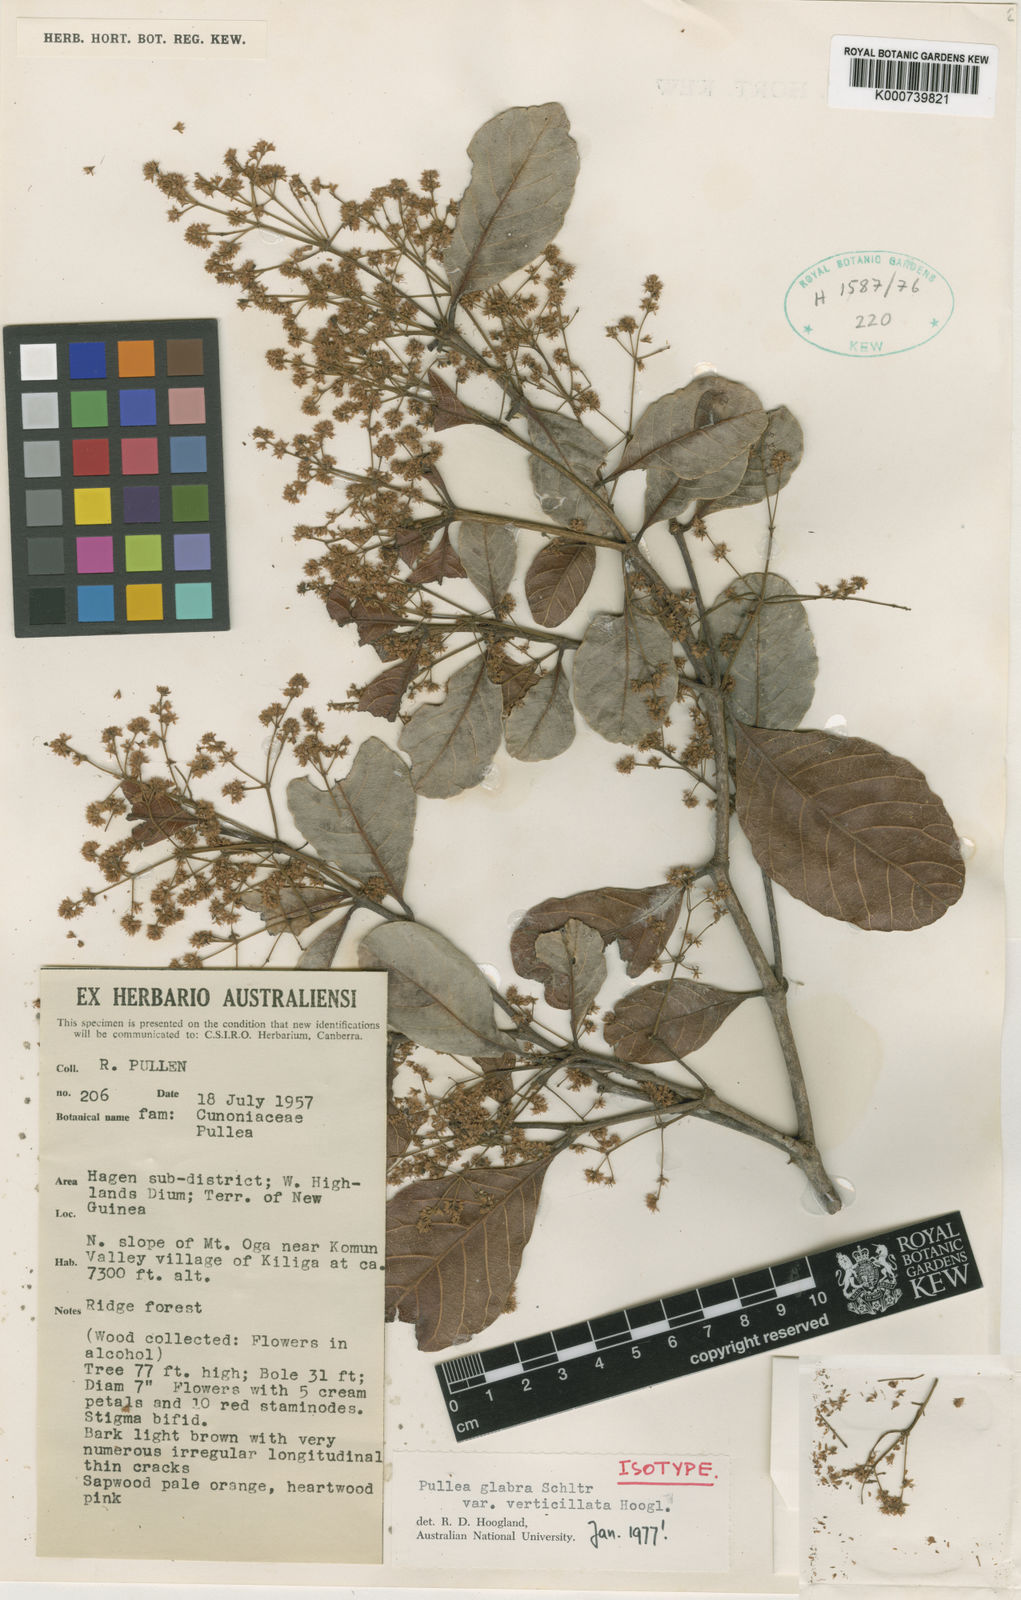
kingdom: Plantae
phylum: Tracheophyta
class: Magnoliopsida
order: Oxalidales
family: Cunoniaceae
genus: Pullea
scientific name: Pullea glabra
